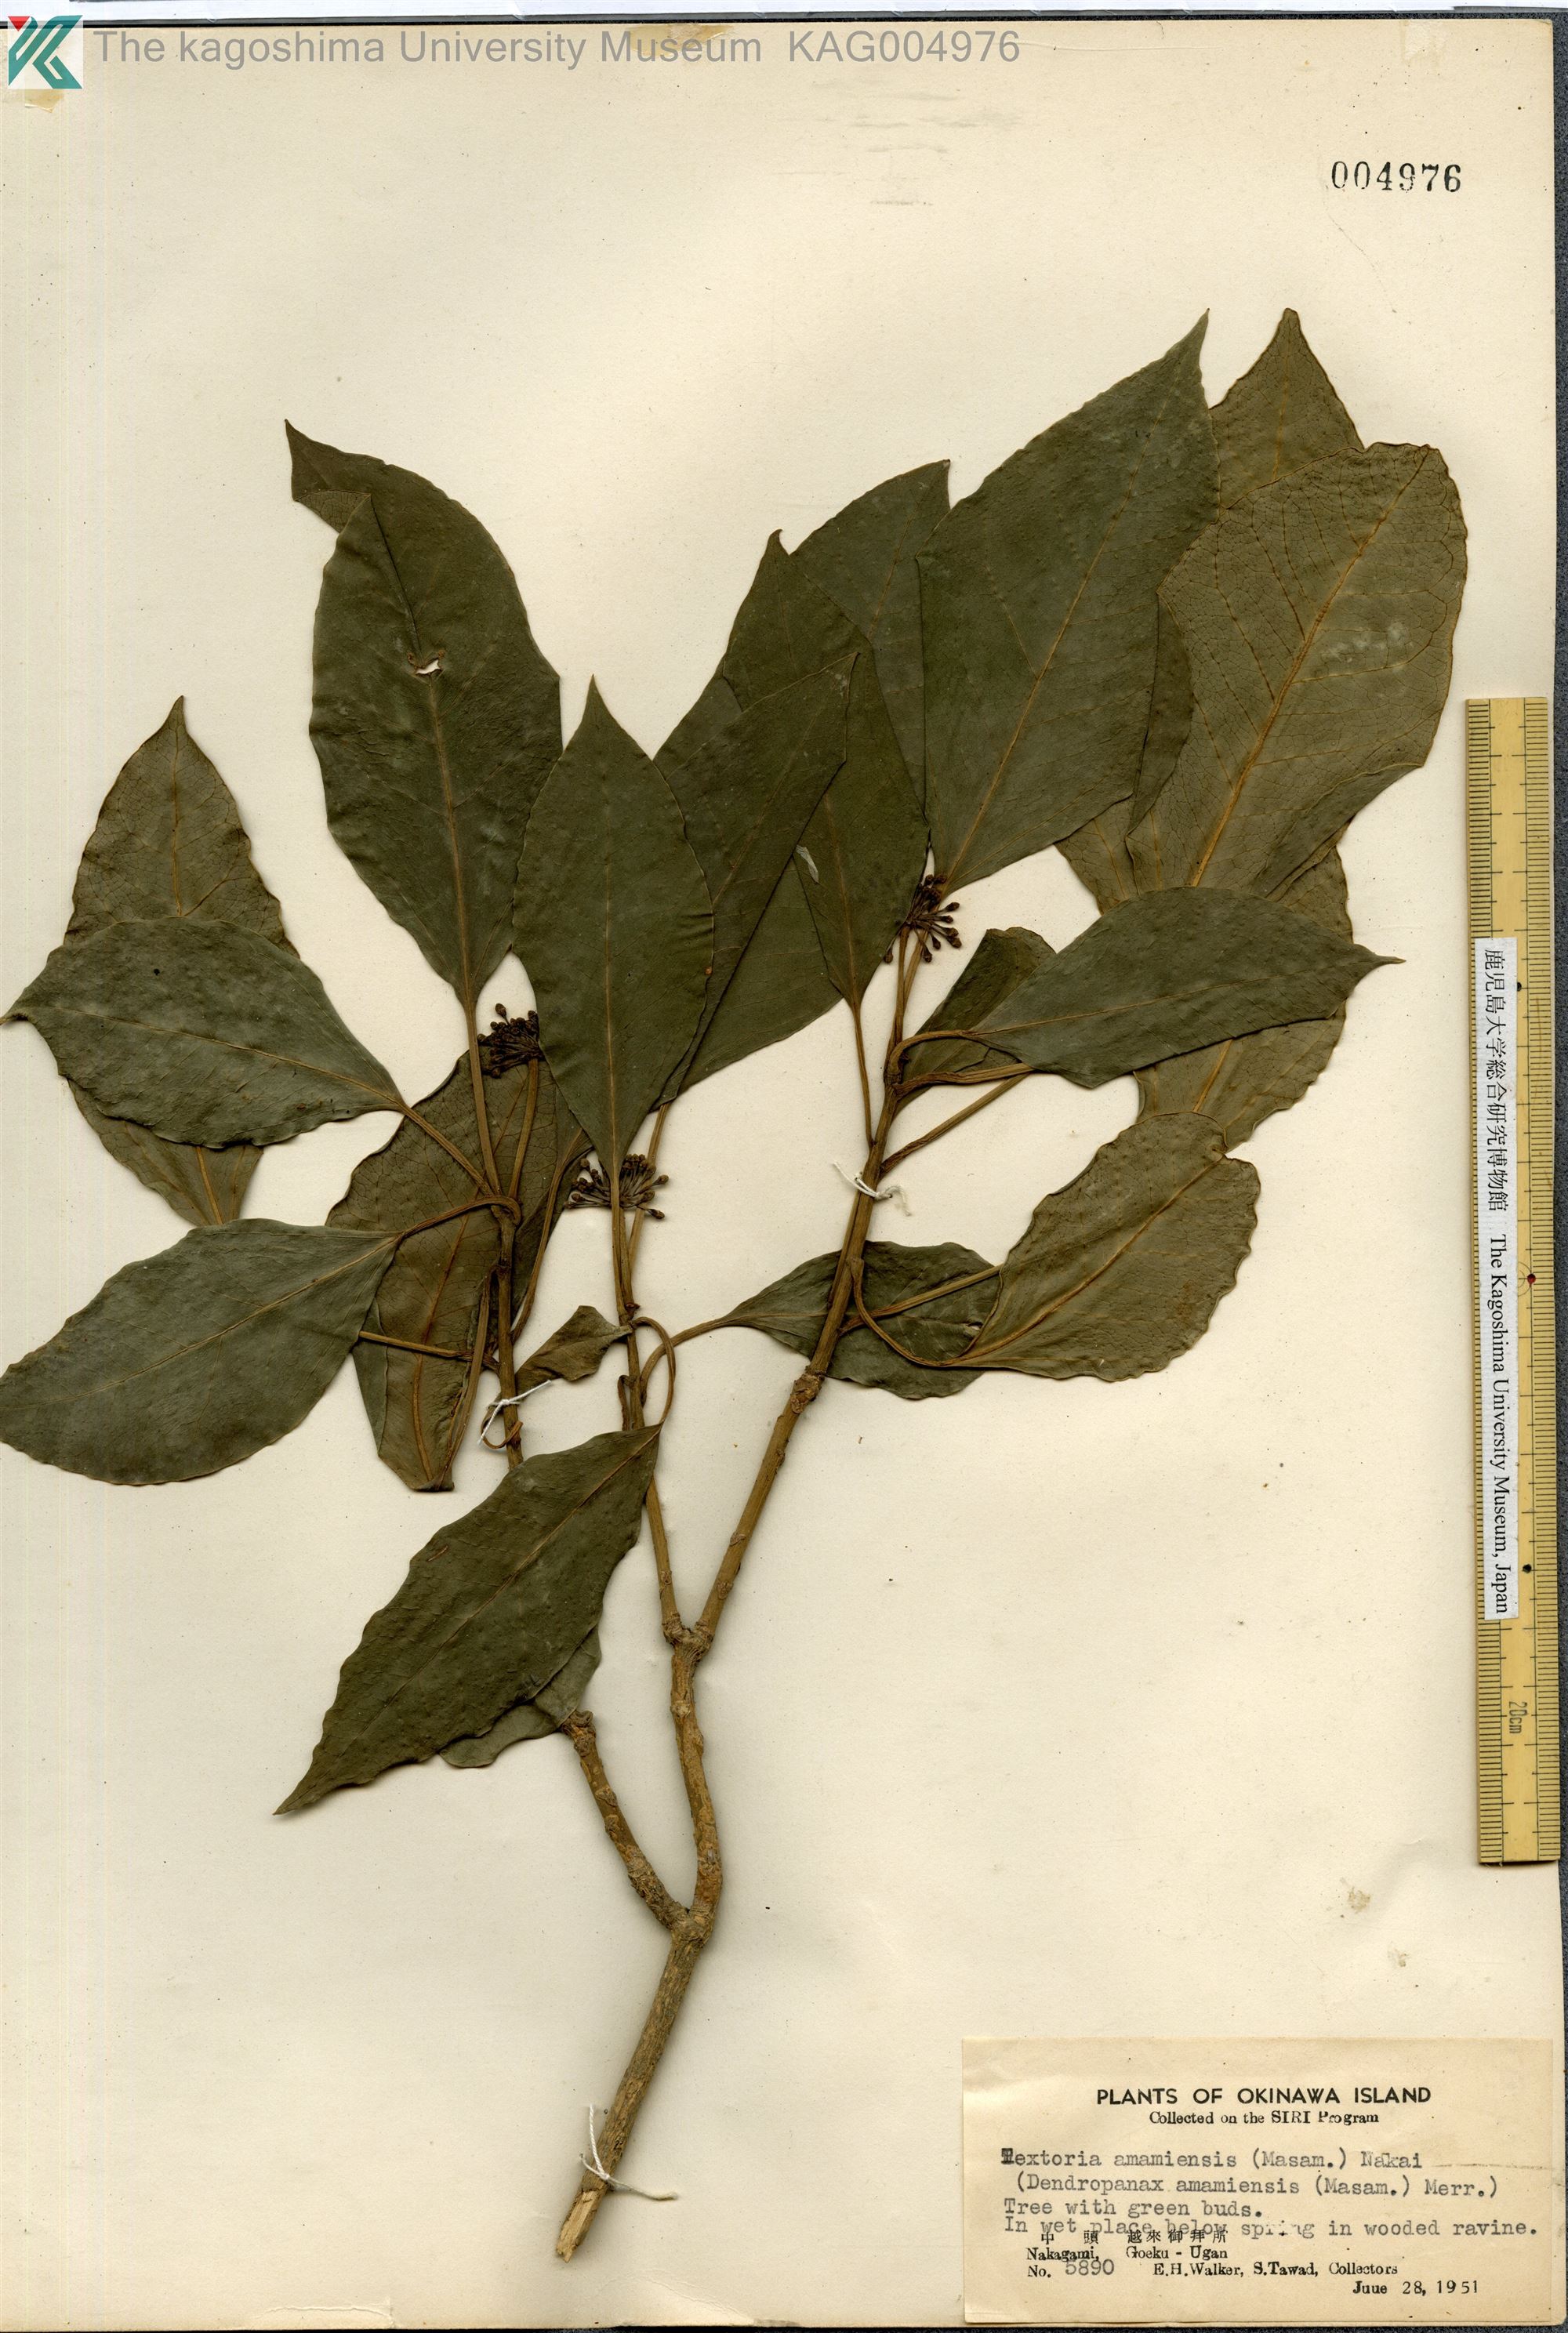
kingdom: Plantae
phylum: Tracheophyta
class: Magnoliopsida
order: Apiales
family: Araliaceae
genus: Dendropanax
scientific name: Dendropanax trifidus
